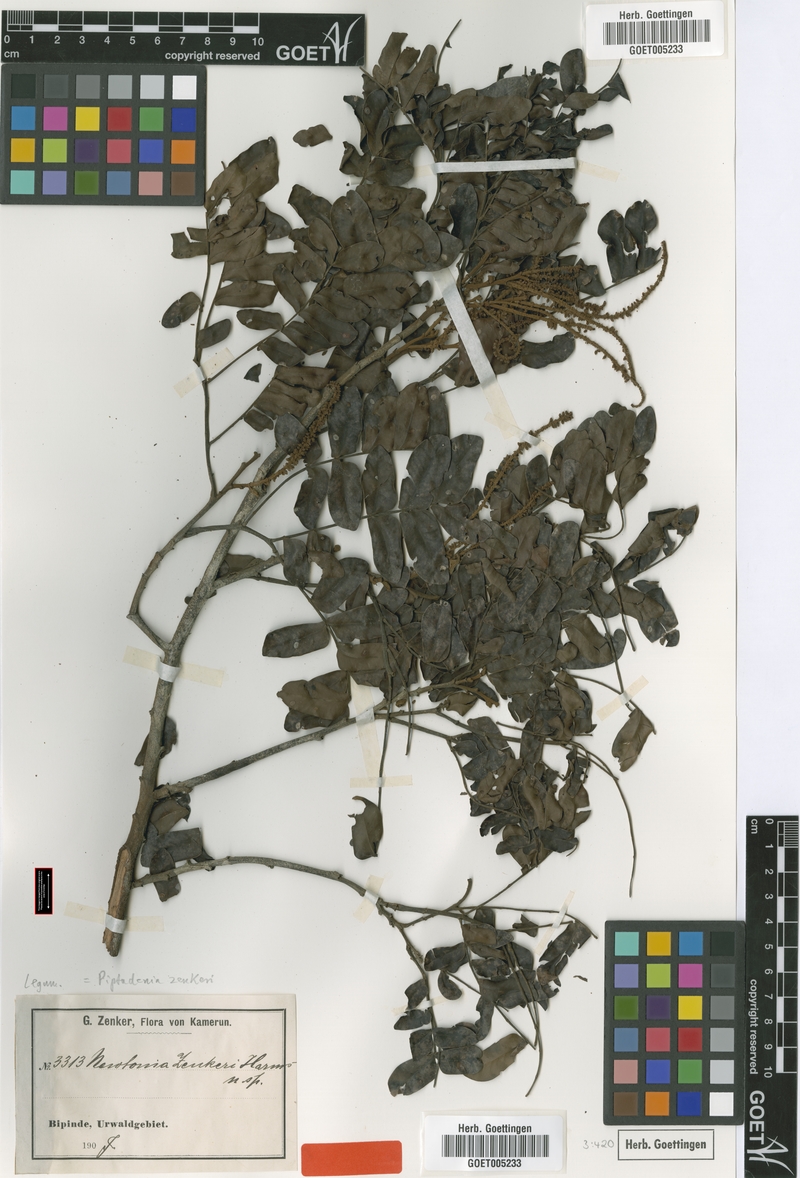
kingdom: Plantae
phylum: Tracheophyta
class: Magnoliopsida
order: Fabales
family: Fabaceae
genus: Newtonia
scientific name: Newtonia zenkeri
